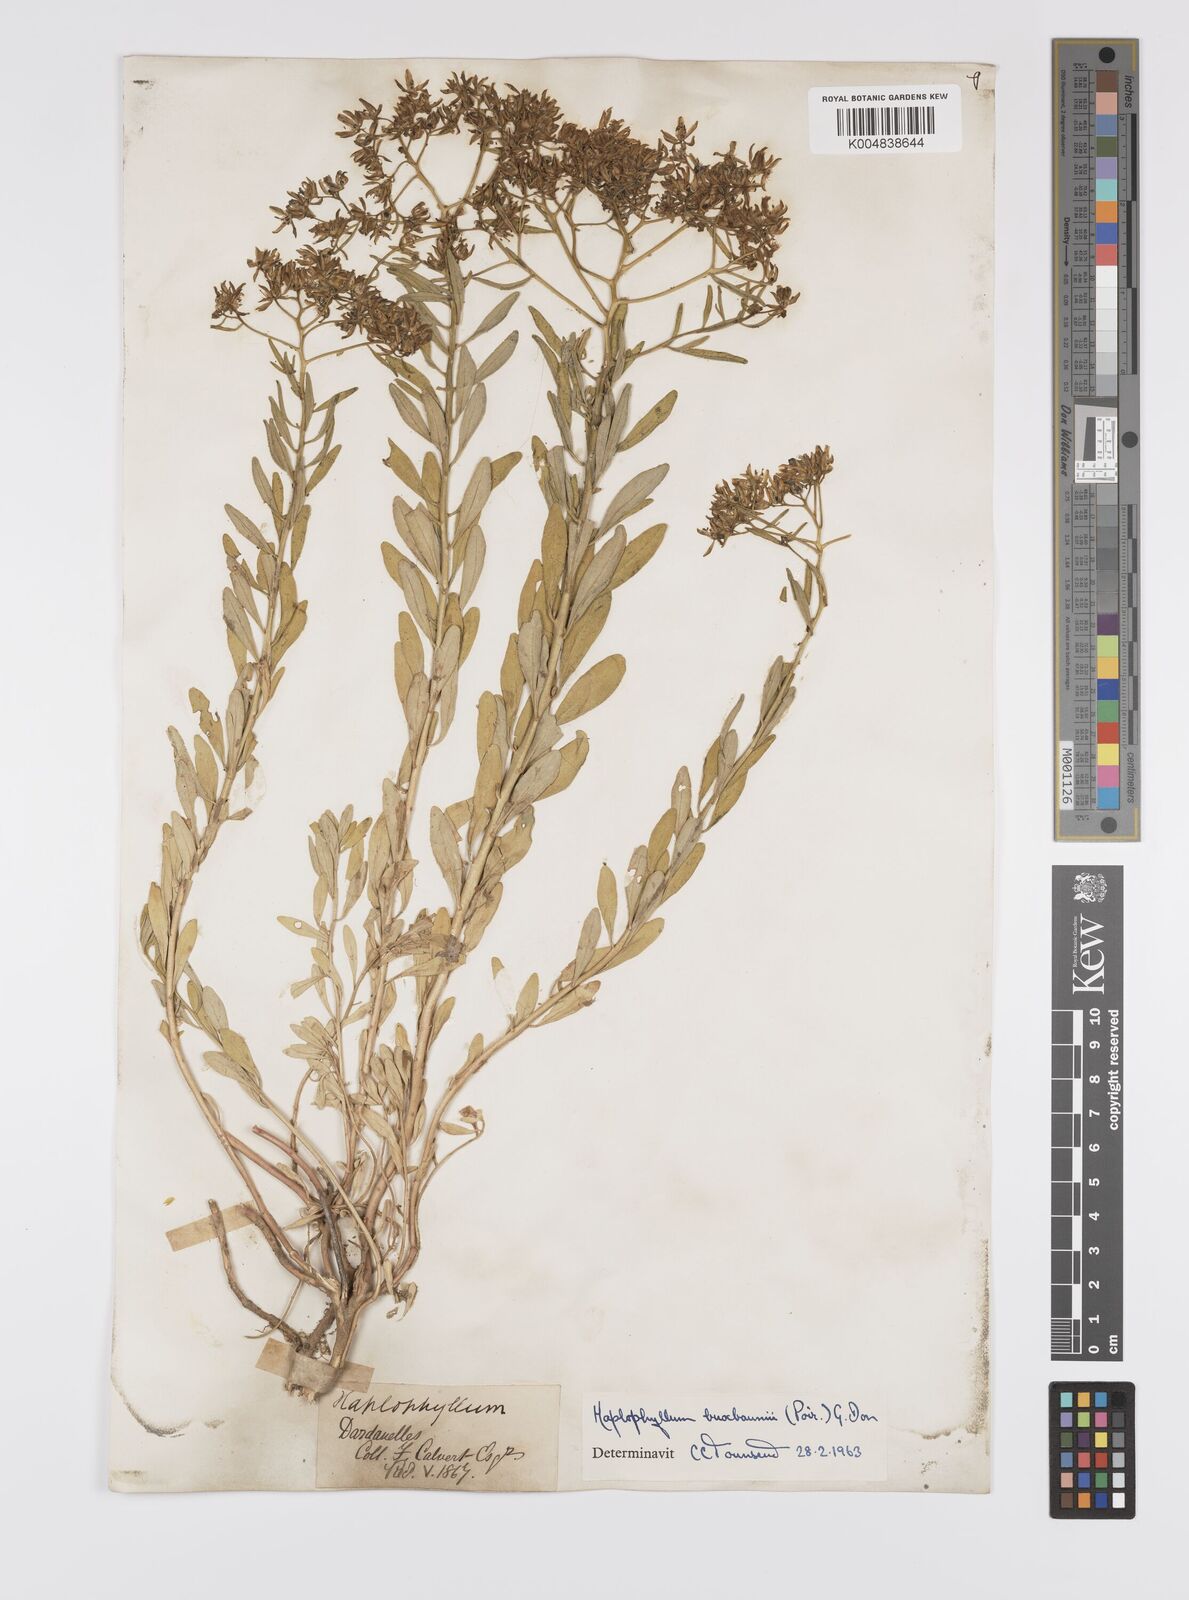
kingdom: Plantae
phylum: Tracheophyta
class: Magnoliopsida
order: Sapindales
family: Rutaceae
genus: Haplophyllum
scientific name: Haplophyllum
